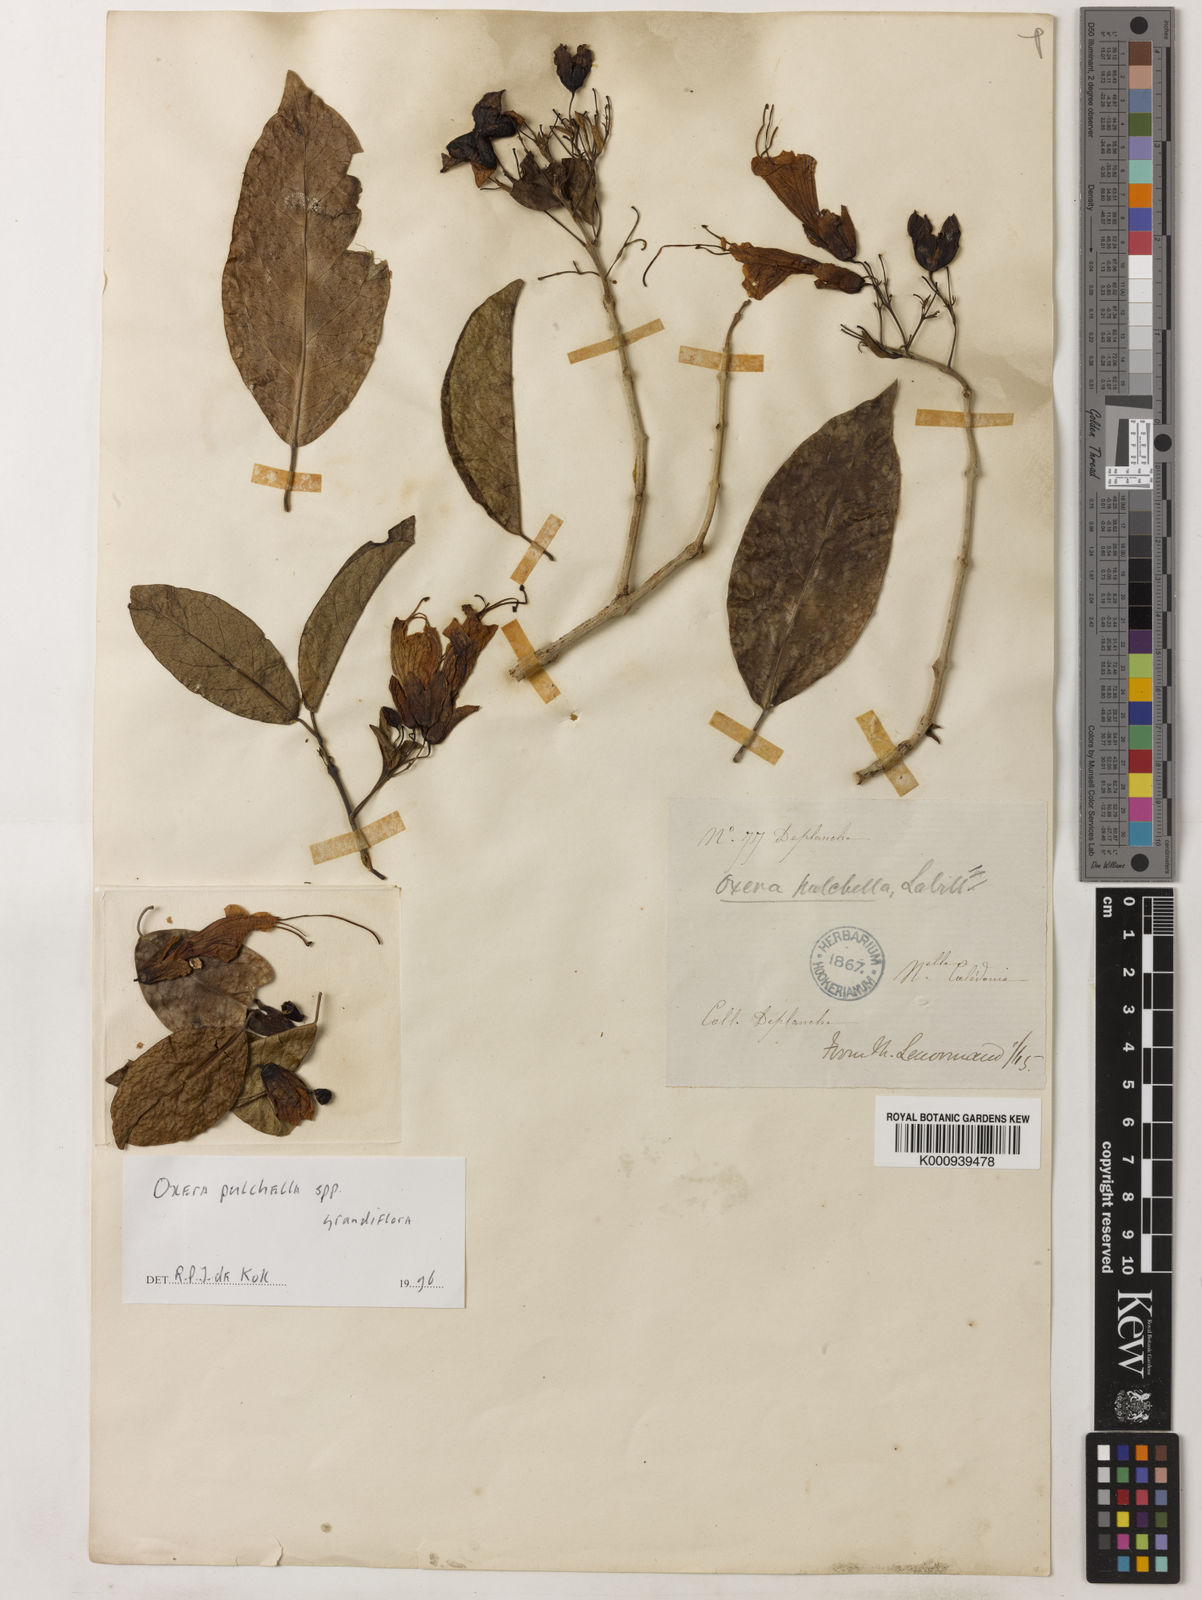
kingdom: Plantae
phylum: Tracheophyta
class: Magnoliopsida
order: Lamiales
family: Lamiaceae
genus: Oxera
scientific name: Oxera pulchella
